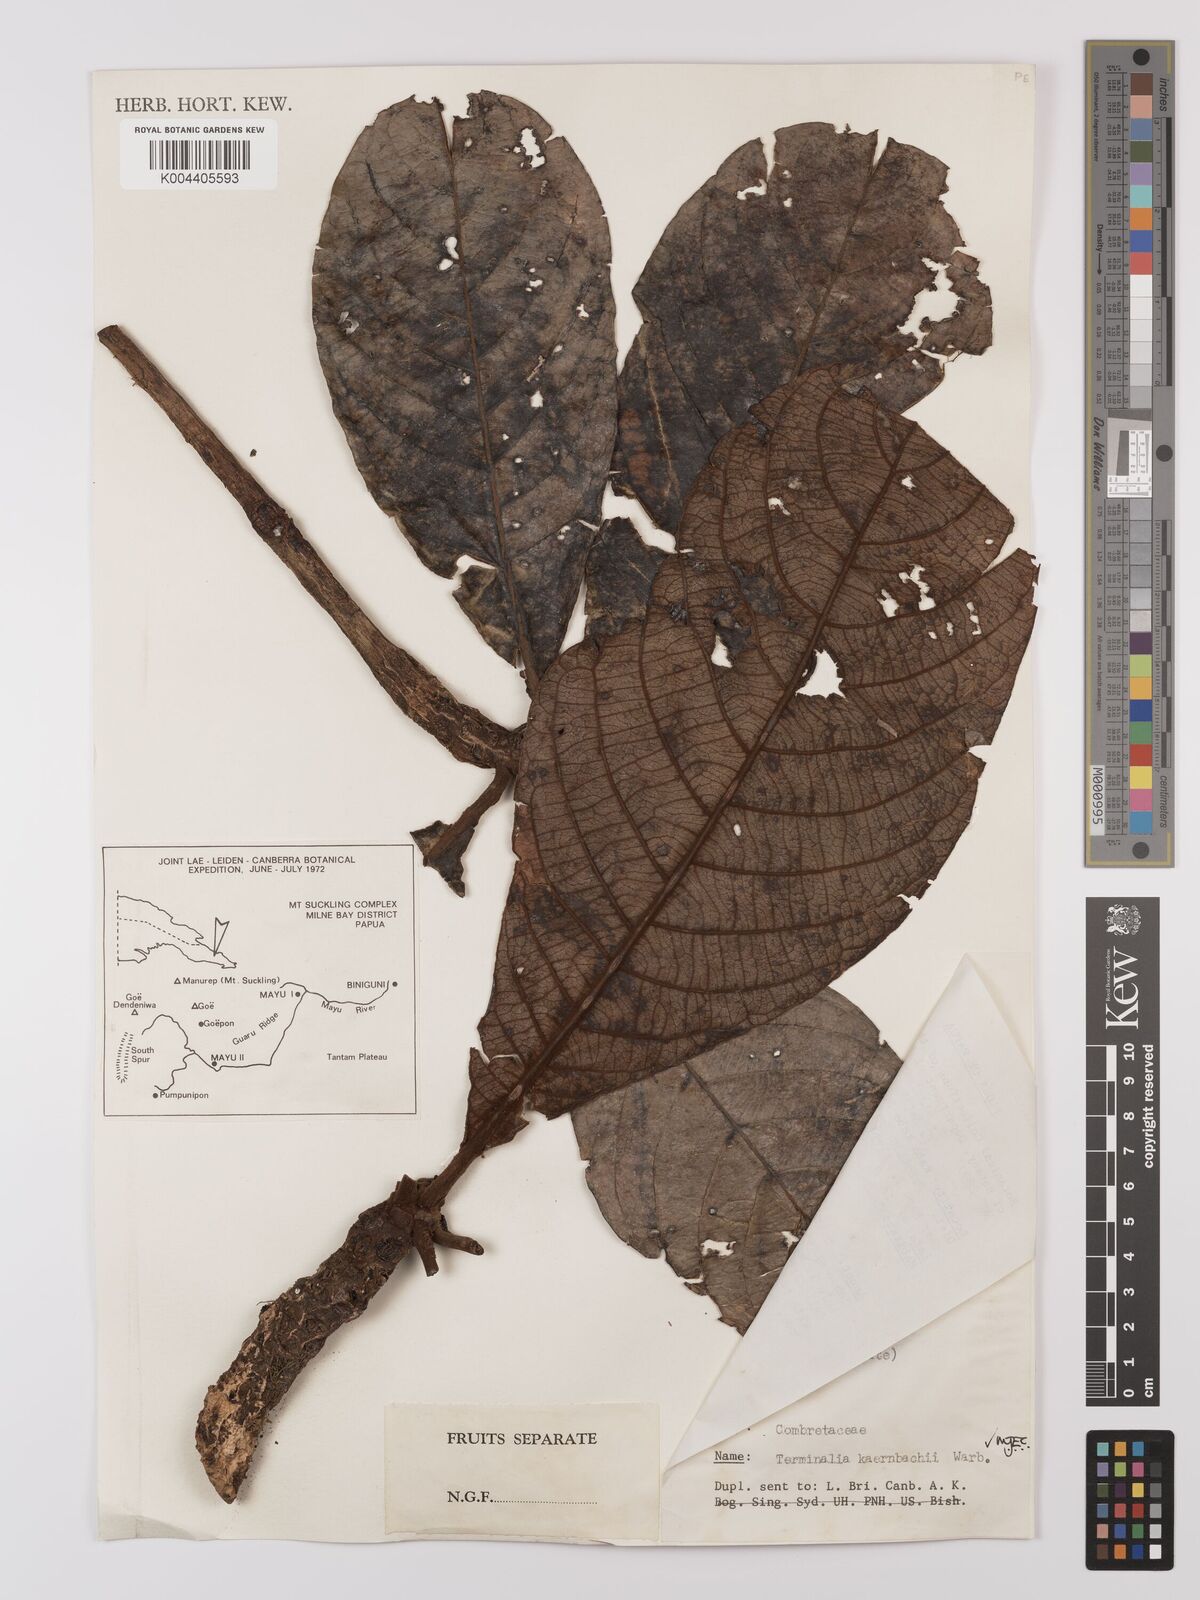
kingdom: Plantae
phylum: Tracheophyta
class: Magnoliopsida
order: Myrtales
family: Combretaceae
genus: Terminalia
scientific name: Terminalia kaernbachii
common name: Okari-nut
